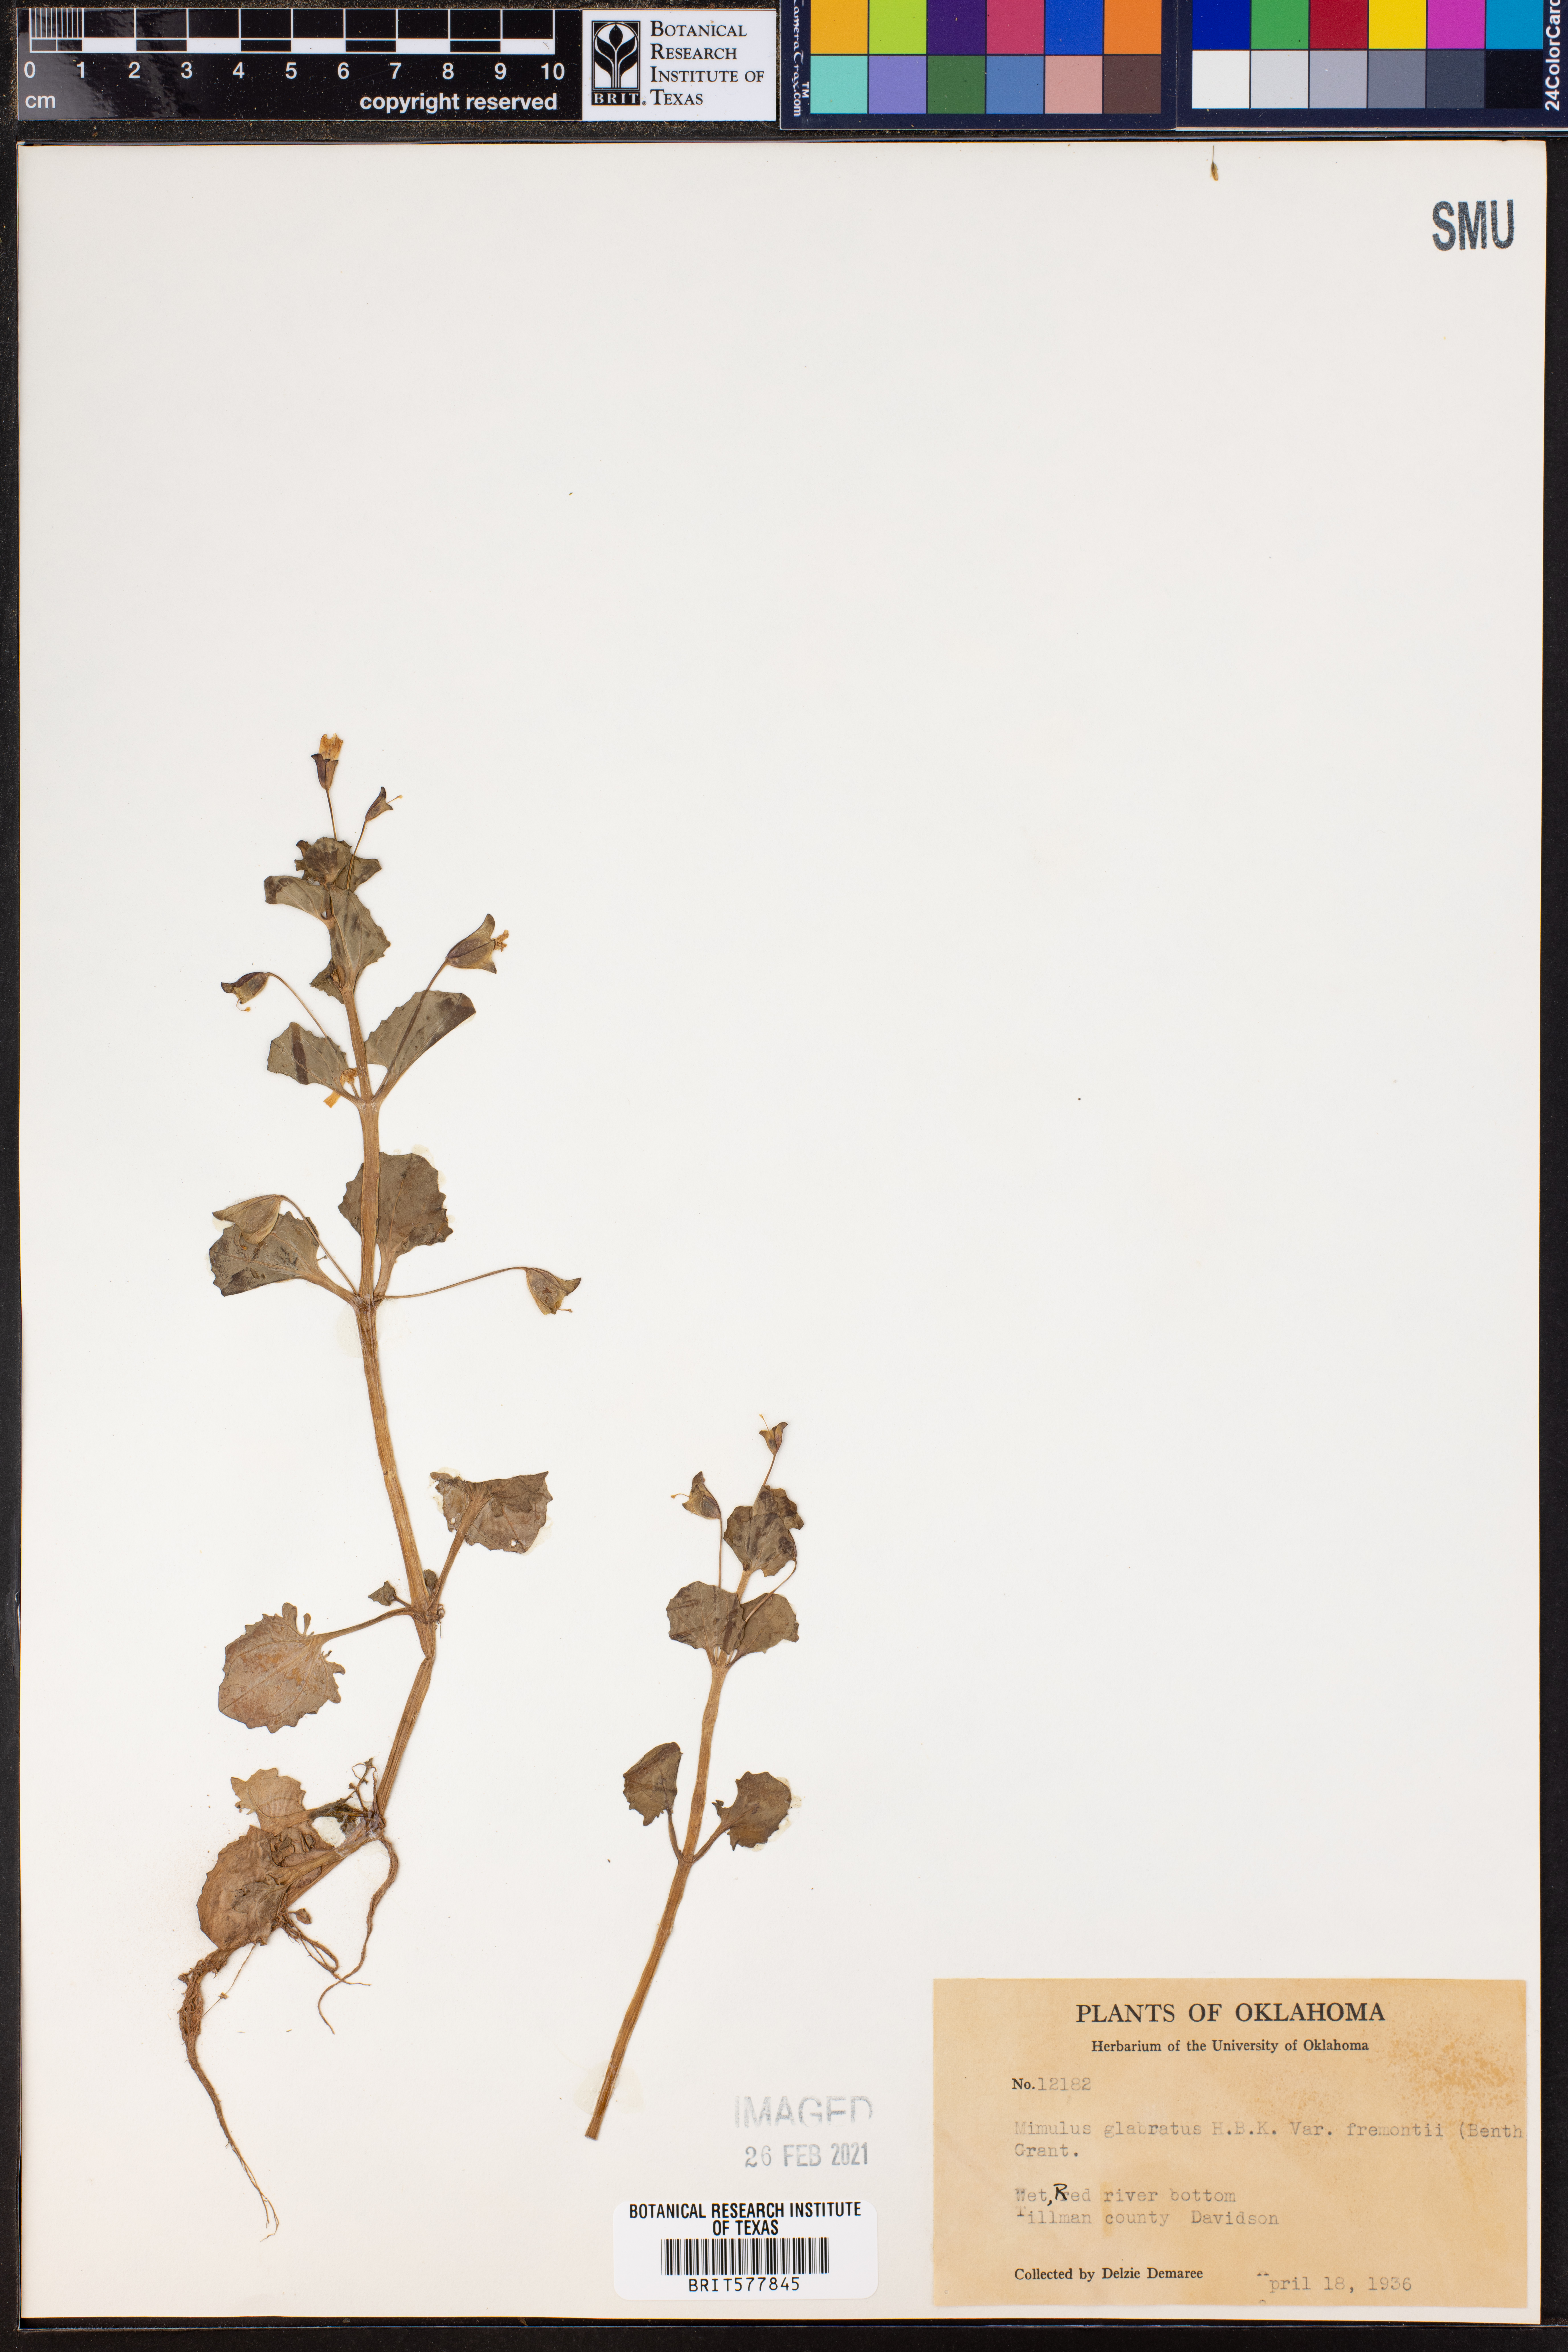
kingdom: Plantae
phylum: Tracheophyta
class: Magnoliopsida
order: Lamiales
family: Phrymaceae
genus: Erythranthe
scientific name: Erythranthe geyeri
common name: Geyer's monkeyflower
